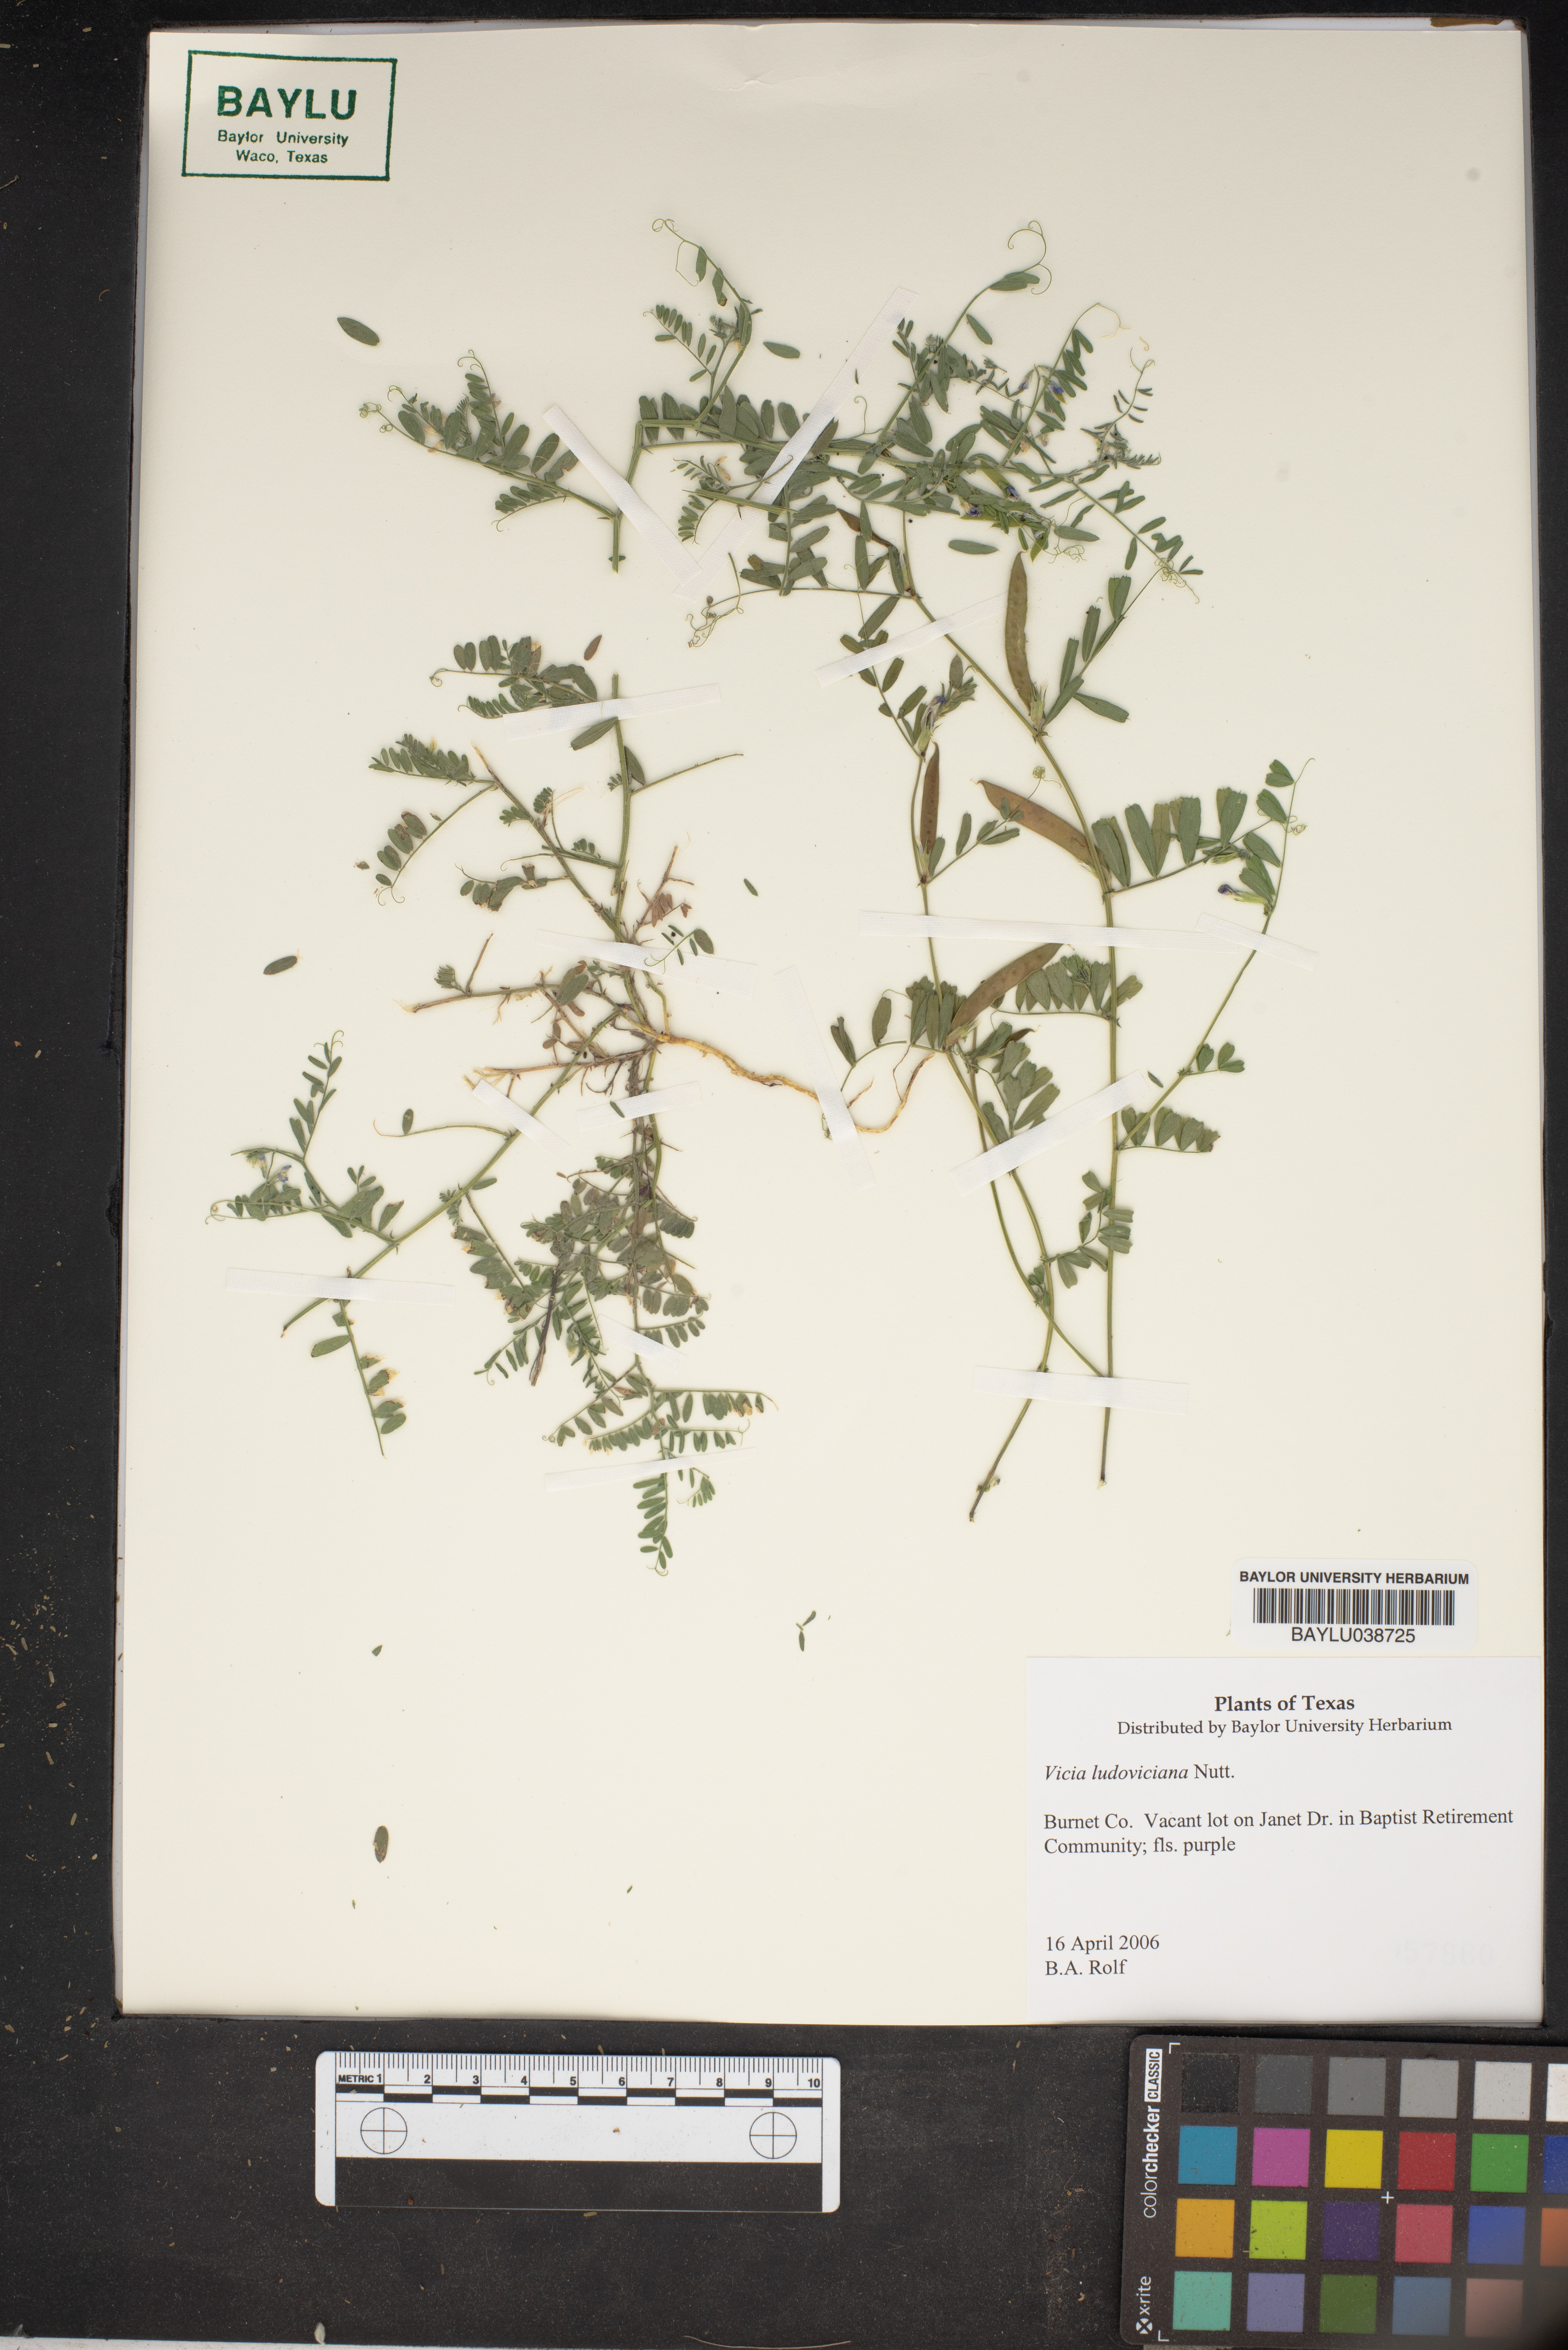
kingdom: Plantae
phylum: Tracheophyta
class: Magnoliopsida
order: Fabales
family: Fabaceae
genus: Vicia
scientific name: Vicia ludoviciana
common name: Louisiana vetch
